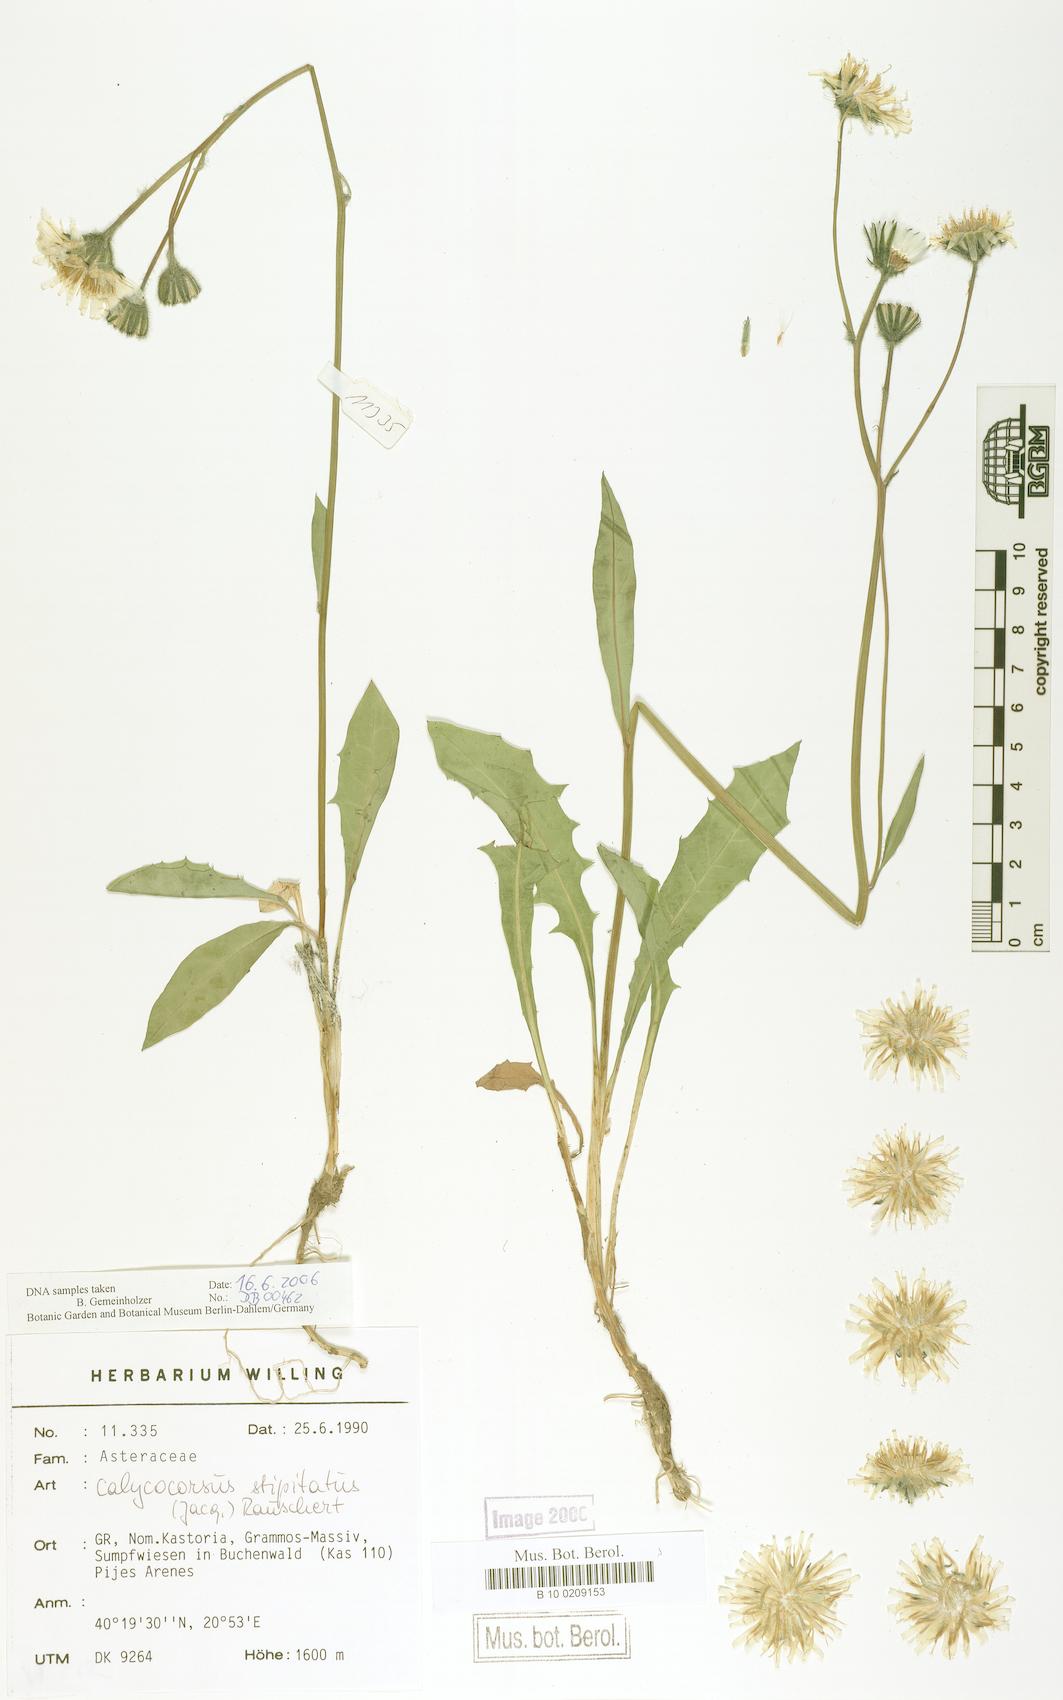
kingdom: Plantae
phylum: Tracheophyta
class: Magnoliopsida
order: Asterales
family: Asteraceae
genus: Willemetia
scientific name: Willemetia stipitata
